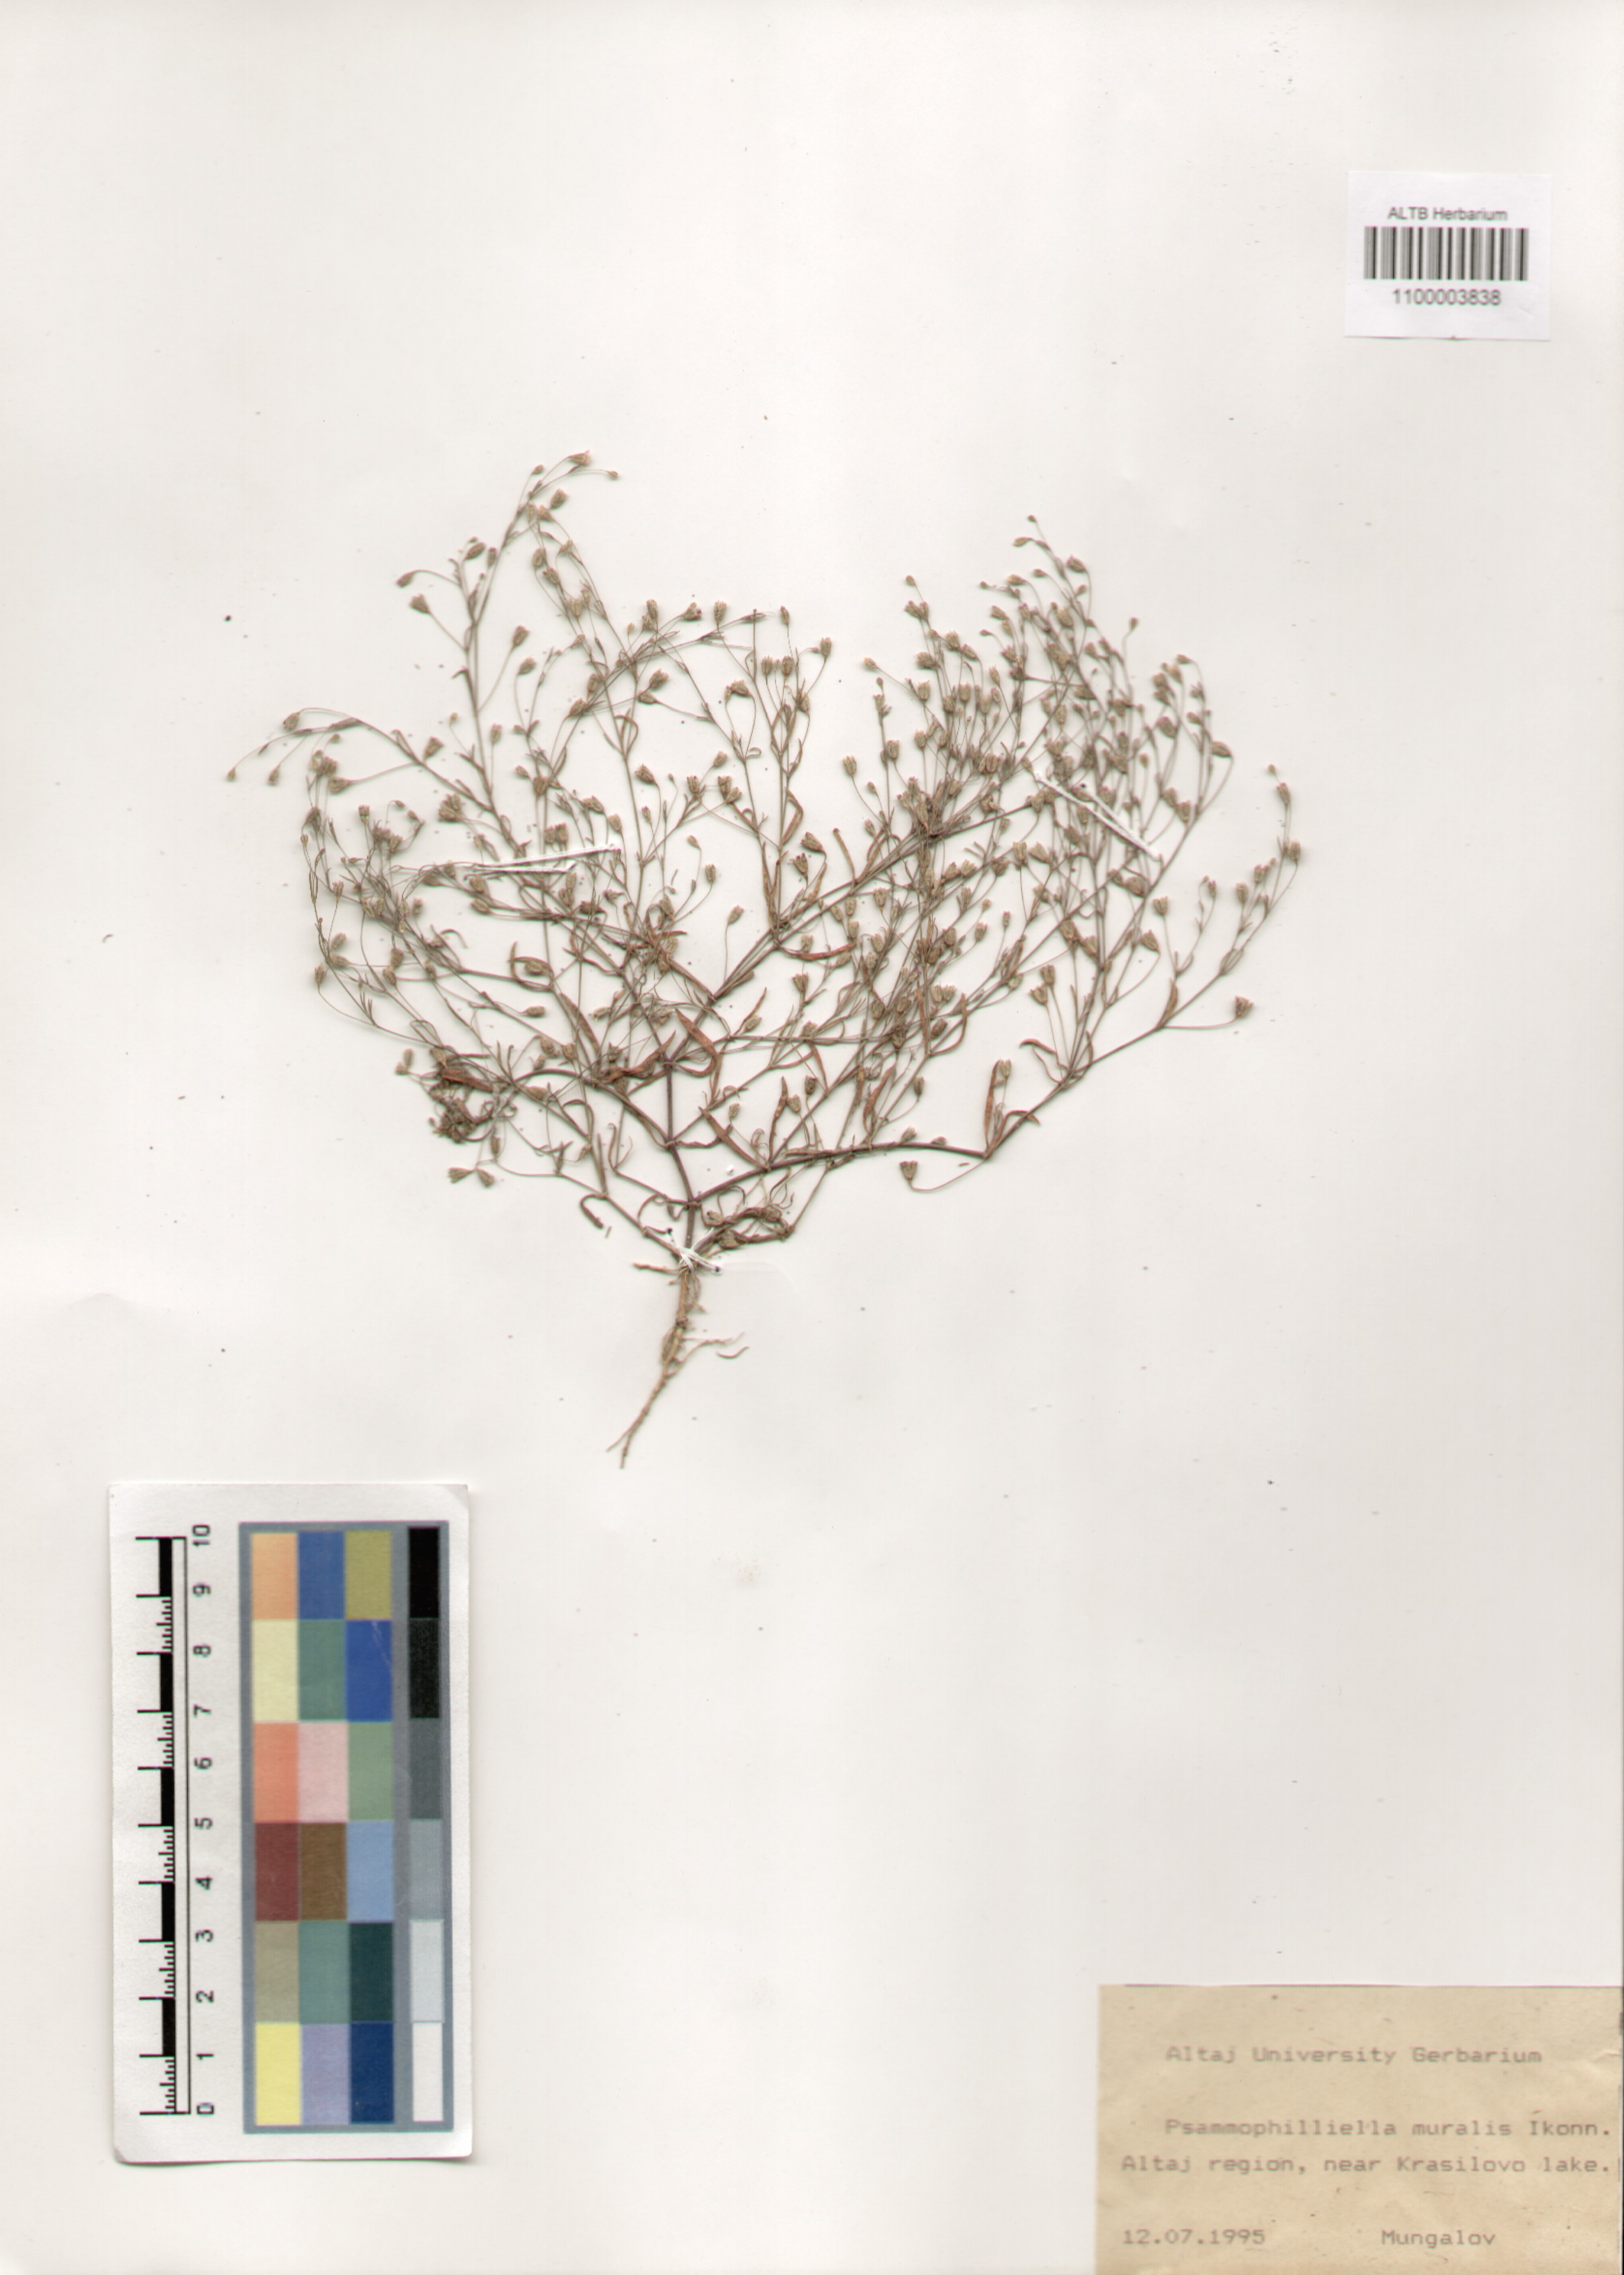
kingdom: Plantae
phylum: Tracheophyta
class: Magnoliopsida
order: Caryophyllales
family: Caryophyllaceae
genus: Psammophiliella
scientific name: Psammophiliella muralis
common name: Cushion baby's-breath
